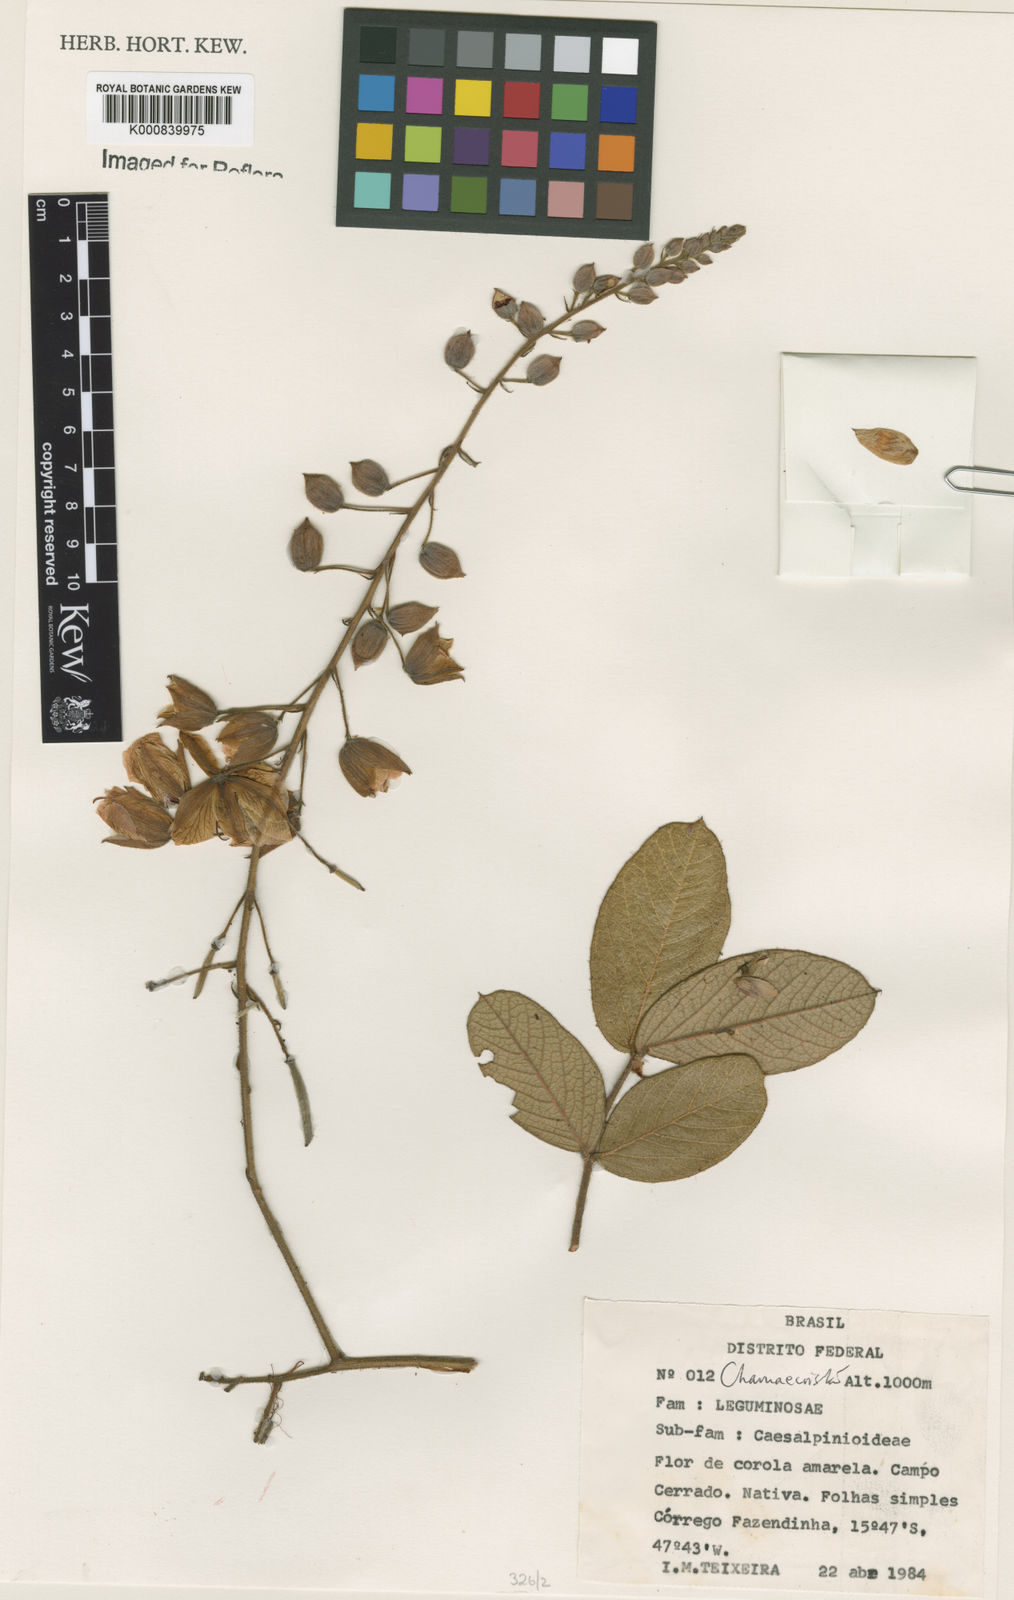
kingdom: Plantae
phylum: Tracheophyta
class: Magnoliopsida
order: Fabales
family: Fabaceae
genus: Chamaecrista
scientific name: Chamaecrista setosa
